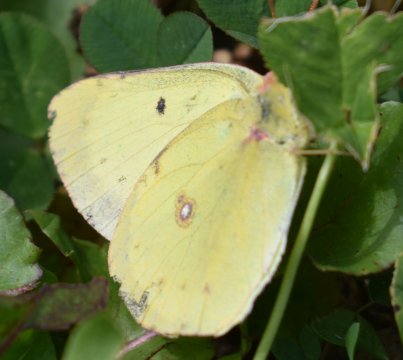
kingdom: Animalia
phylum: Arthropoda
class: Insecta
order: Lepidoptera
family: Pieridae
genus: Colias
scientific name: Colias philodice
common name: Clouded Sulphur
